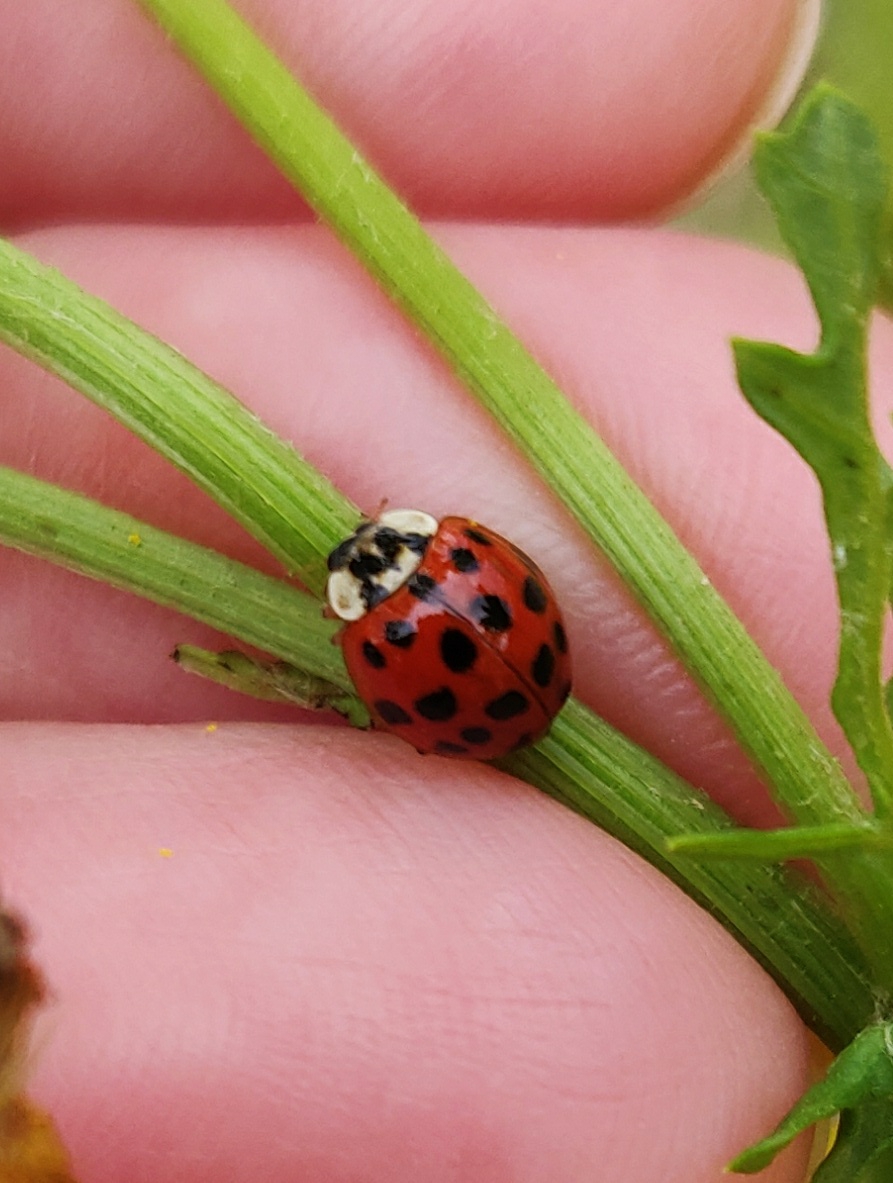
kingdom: Animalia
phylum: Arthropoda
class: Insecta
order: Coleoptera
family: Coccinellidae
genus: Harmonia
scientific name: Harmonia axyridis
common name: Harlekinmariehøne
